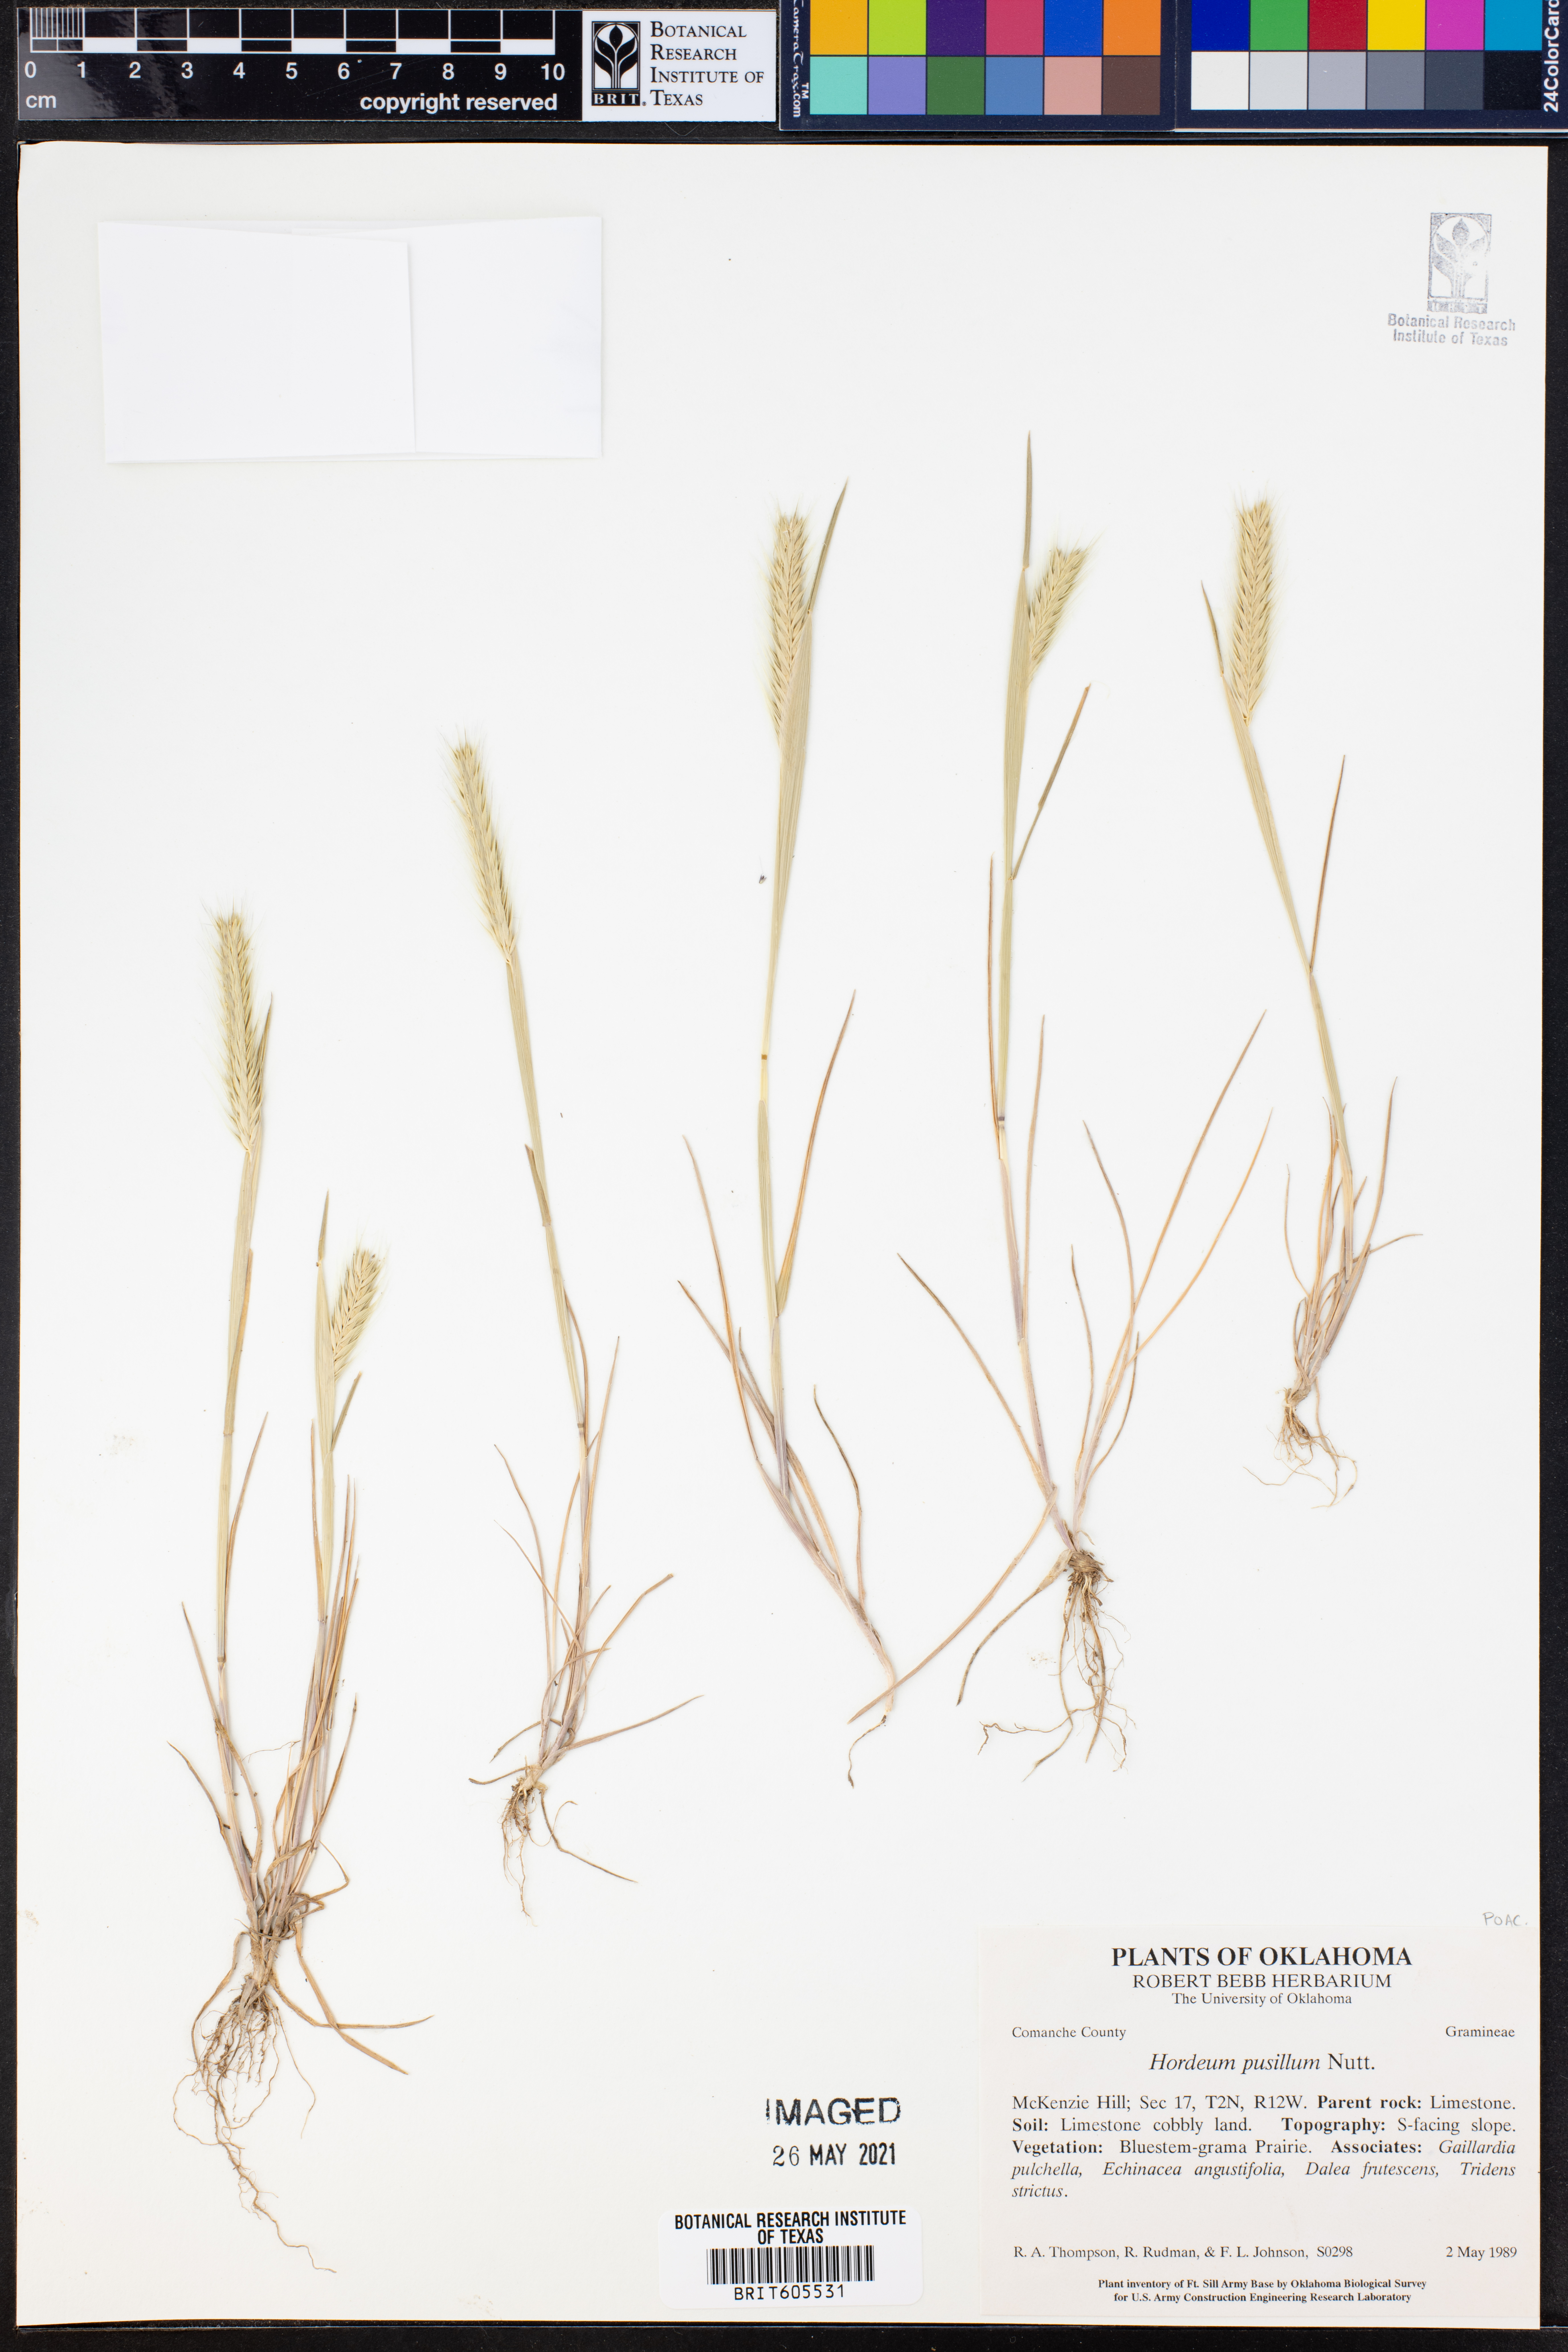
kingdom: Plantae
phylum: Tracheophyta
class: Liliopsida
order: Poales
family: Poaceae
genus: Hordeum
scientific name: Hordeum pusillum
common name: Little barley
